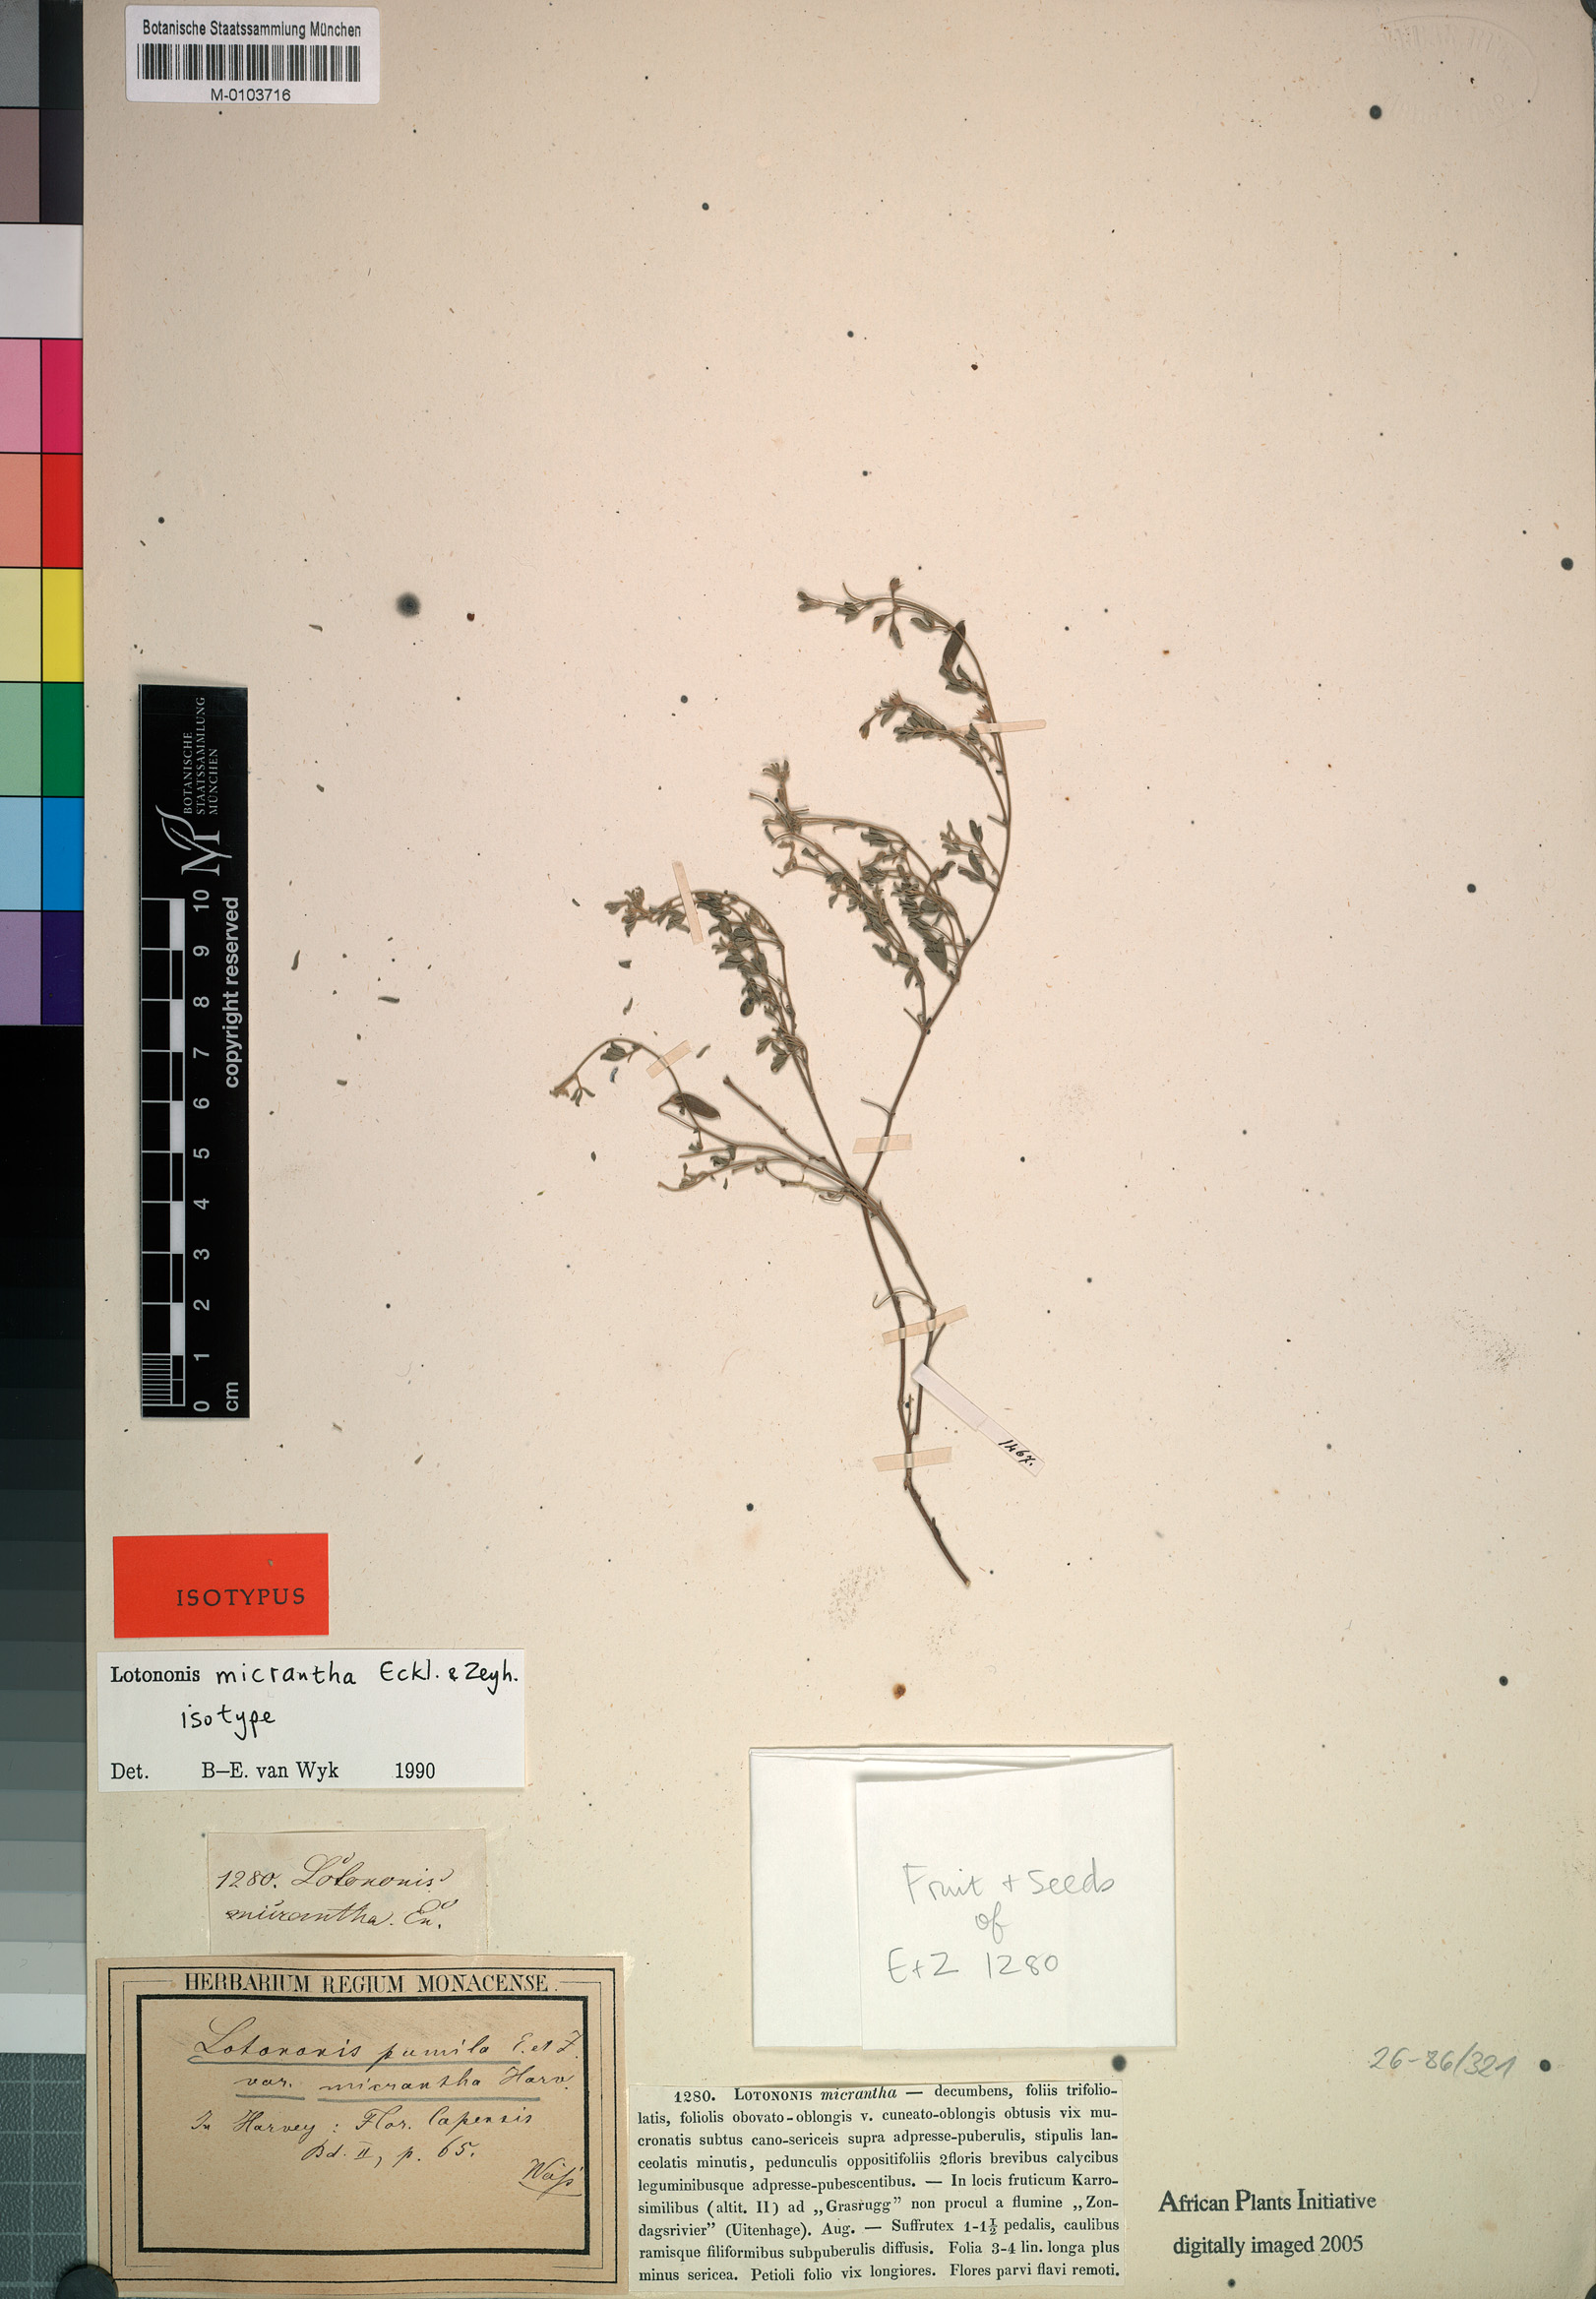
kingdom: Plantae
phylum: Tracheophyta
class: Liliopsida
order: Poales
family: Poaceae
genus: Lasiorhachis
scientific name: Lasiorhachis hildebrandtii
